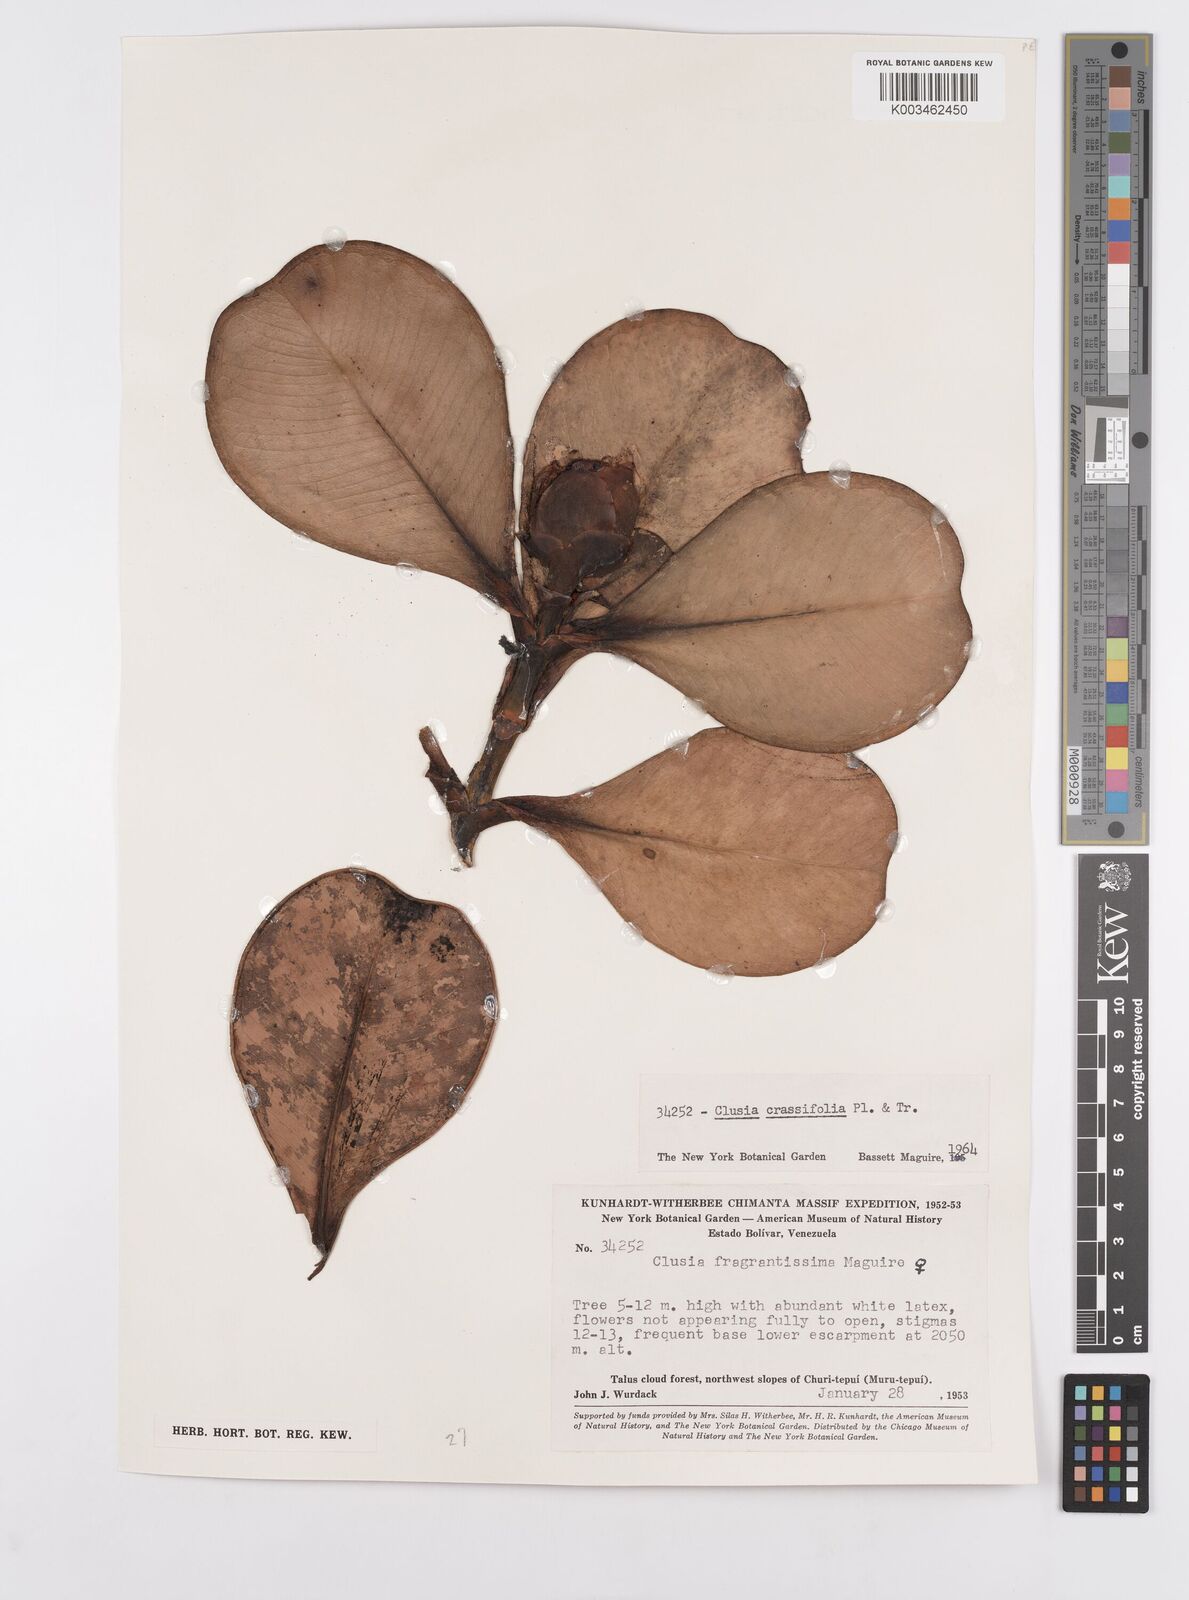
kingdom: Plantae
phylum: Tracheophyta
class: Magnoliopsida
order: Malpighiales
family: Clusiaceae
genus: Clusia
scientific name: Clusia crassifolia
